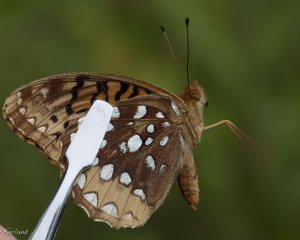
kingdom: Animalia
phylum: Arthropoda
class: Insecta
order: Lepidoptera
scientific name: Lepidoptera
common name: Butterflies
